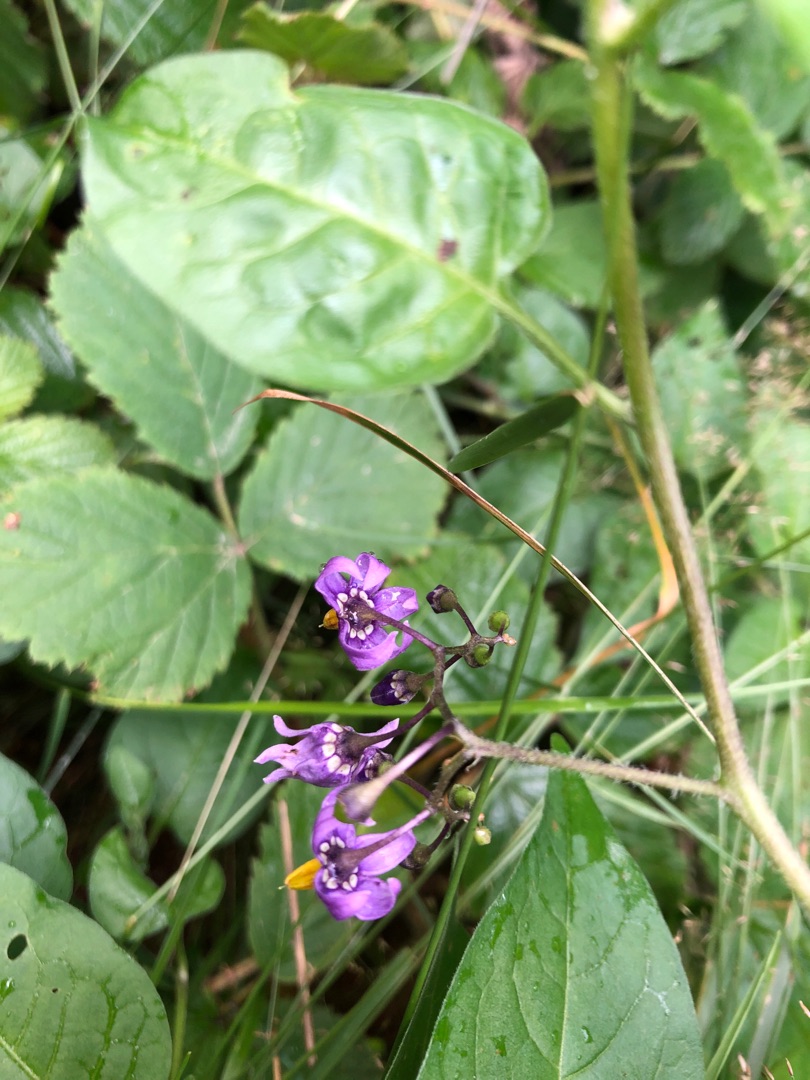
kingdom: Plantae
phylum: Tracheophyta
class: Magnoliopsida
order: Solanales
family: Solanaceae
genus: Solanum
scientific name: Solanum dulcamara
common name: Bittersød natskygge
